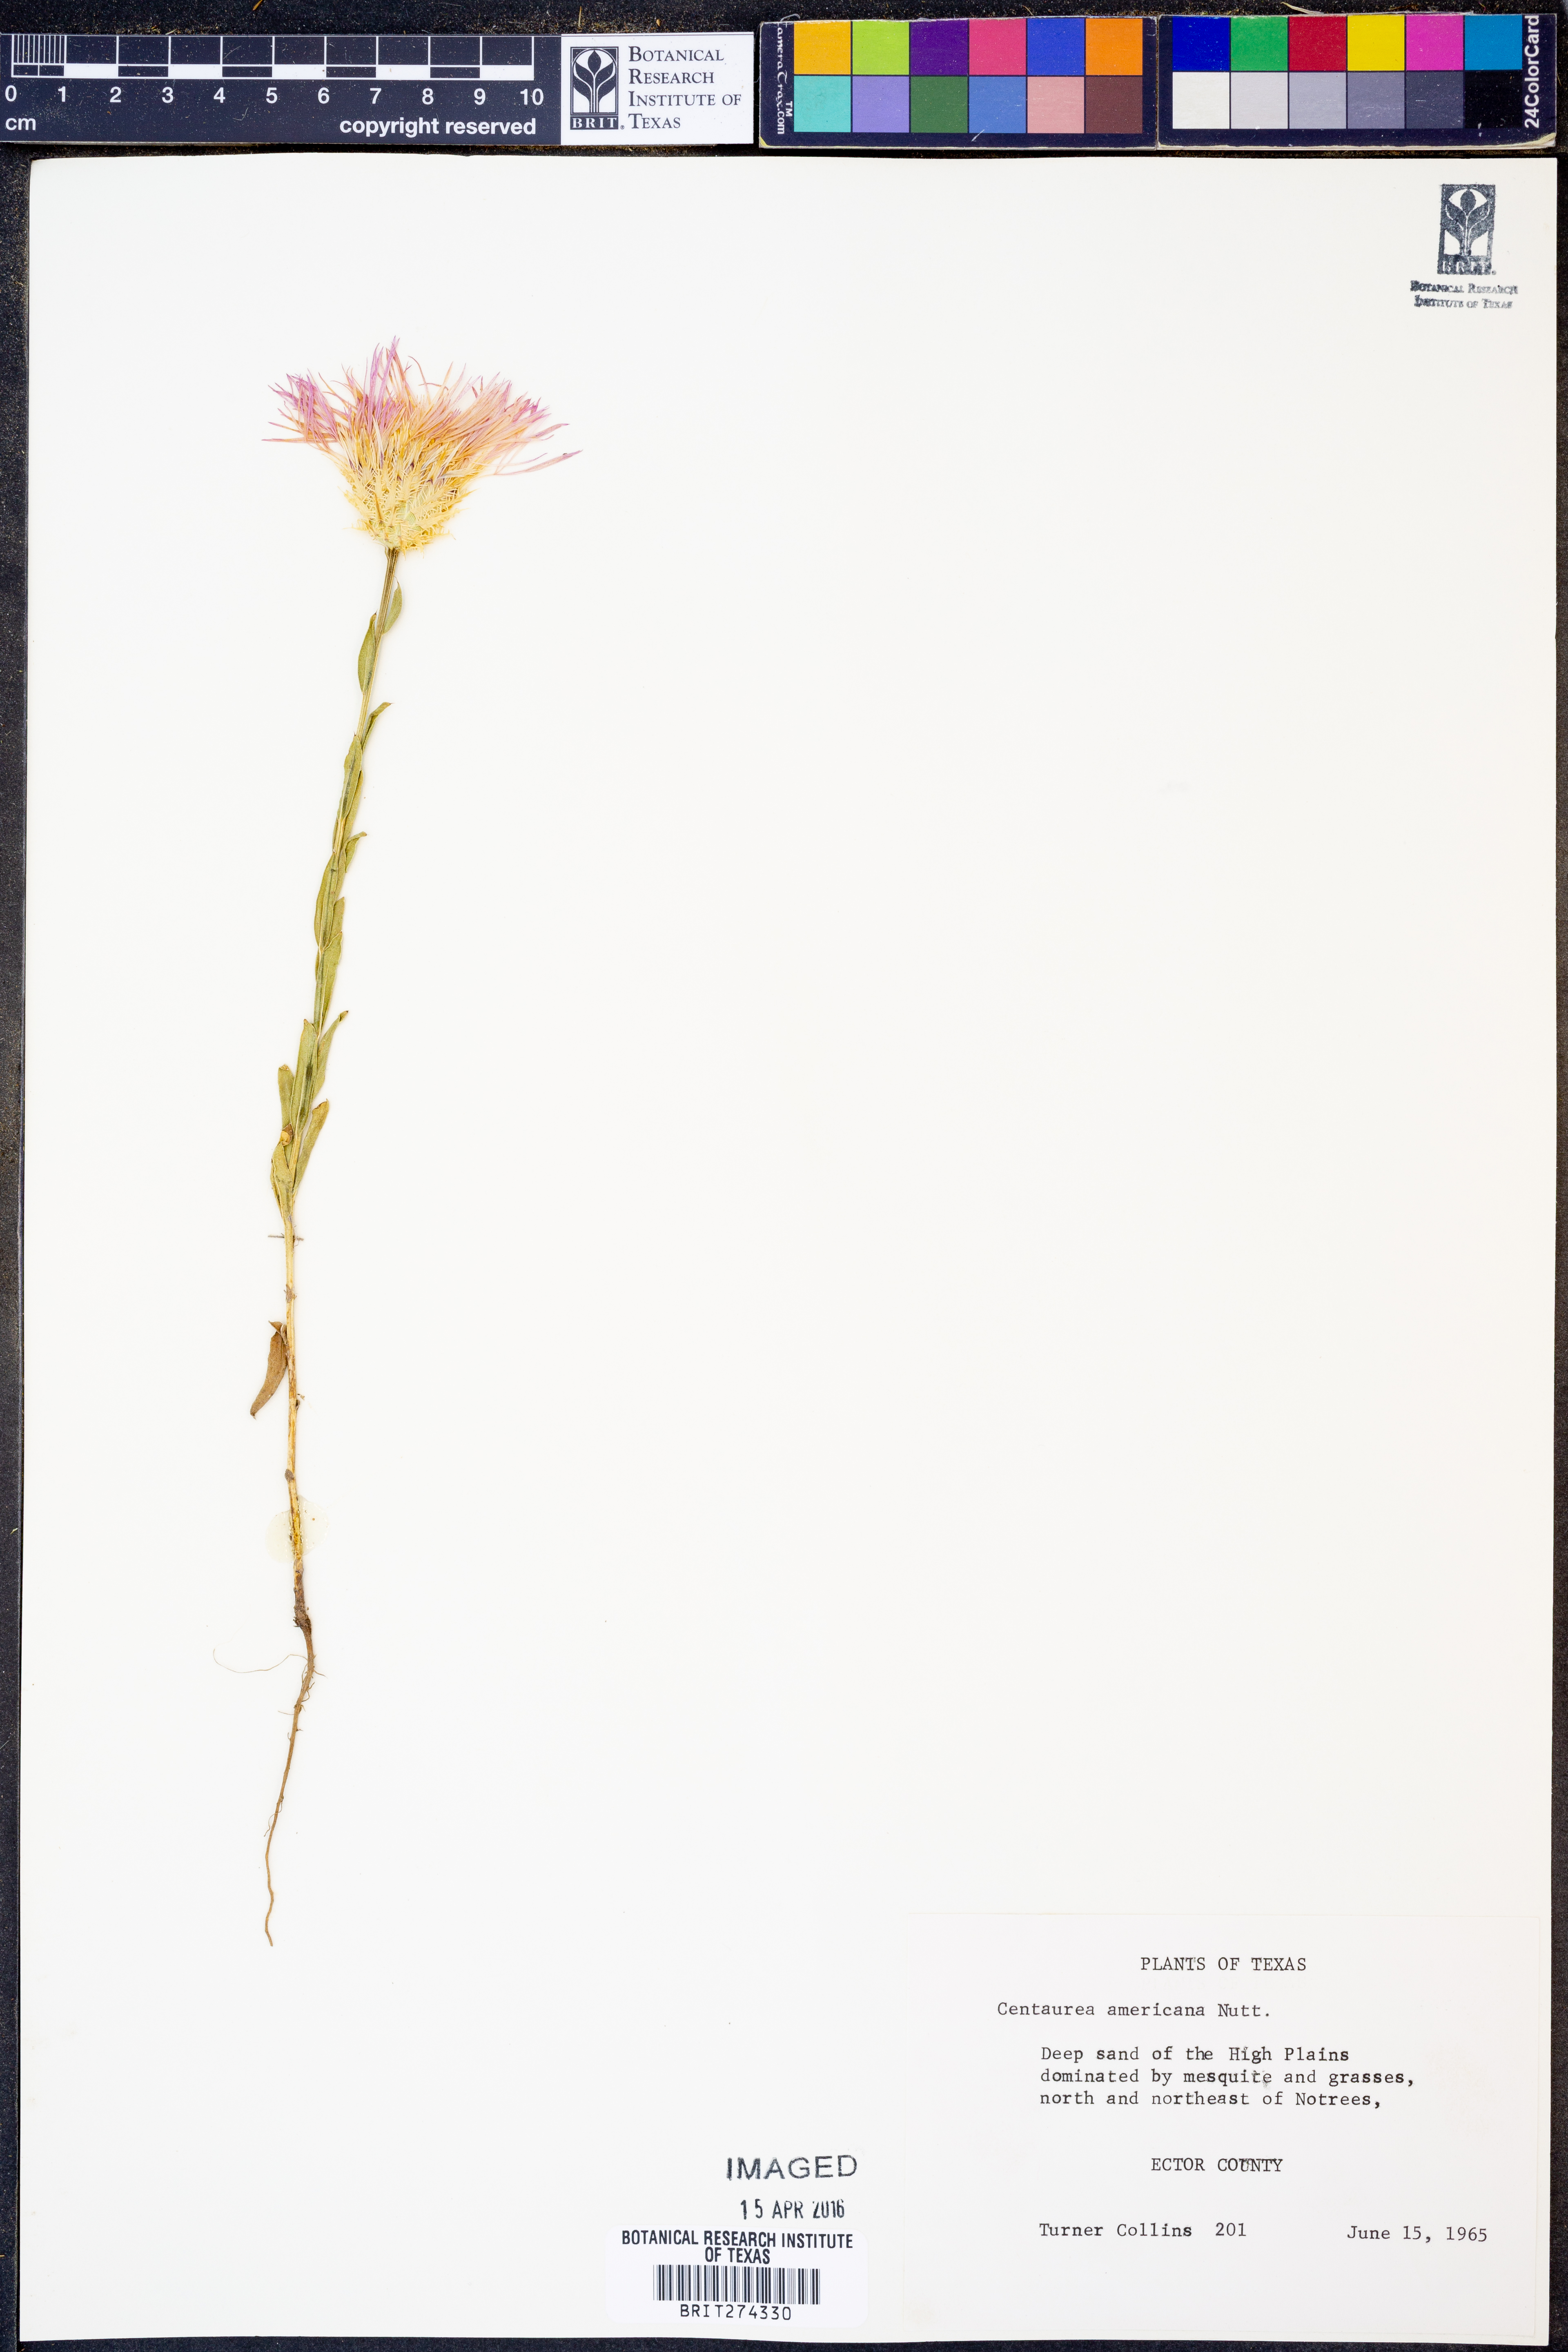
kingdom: Plantae
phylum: Tracheophyta
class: Magnoliopsida
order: Asterales
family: Asteraceae
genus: Plectocephalus
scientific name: Plectocephalus americanus
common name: American basket-flower
